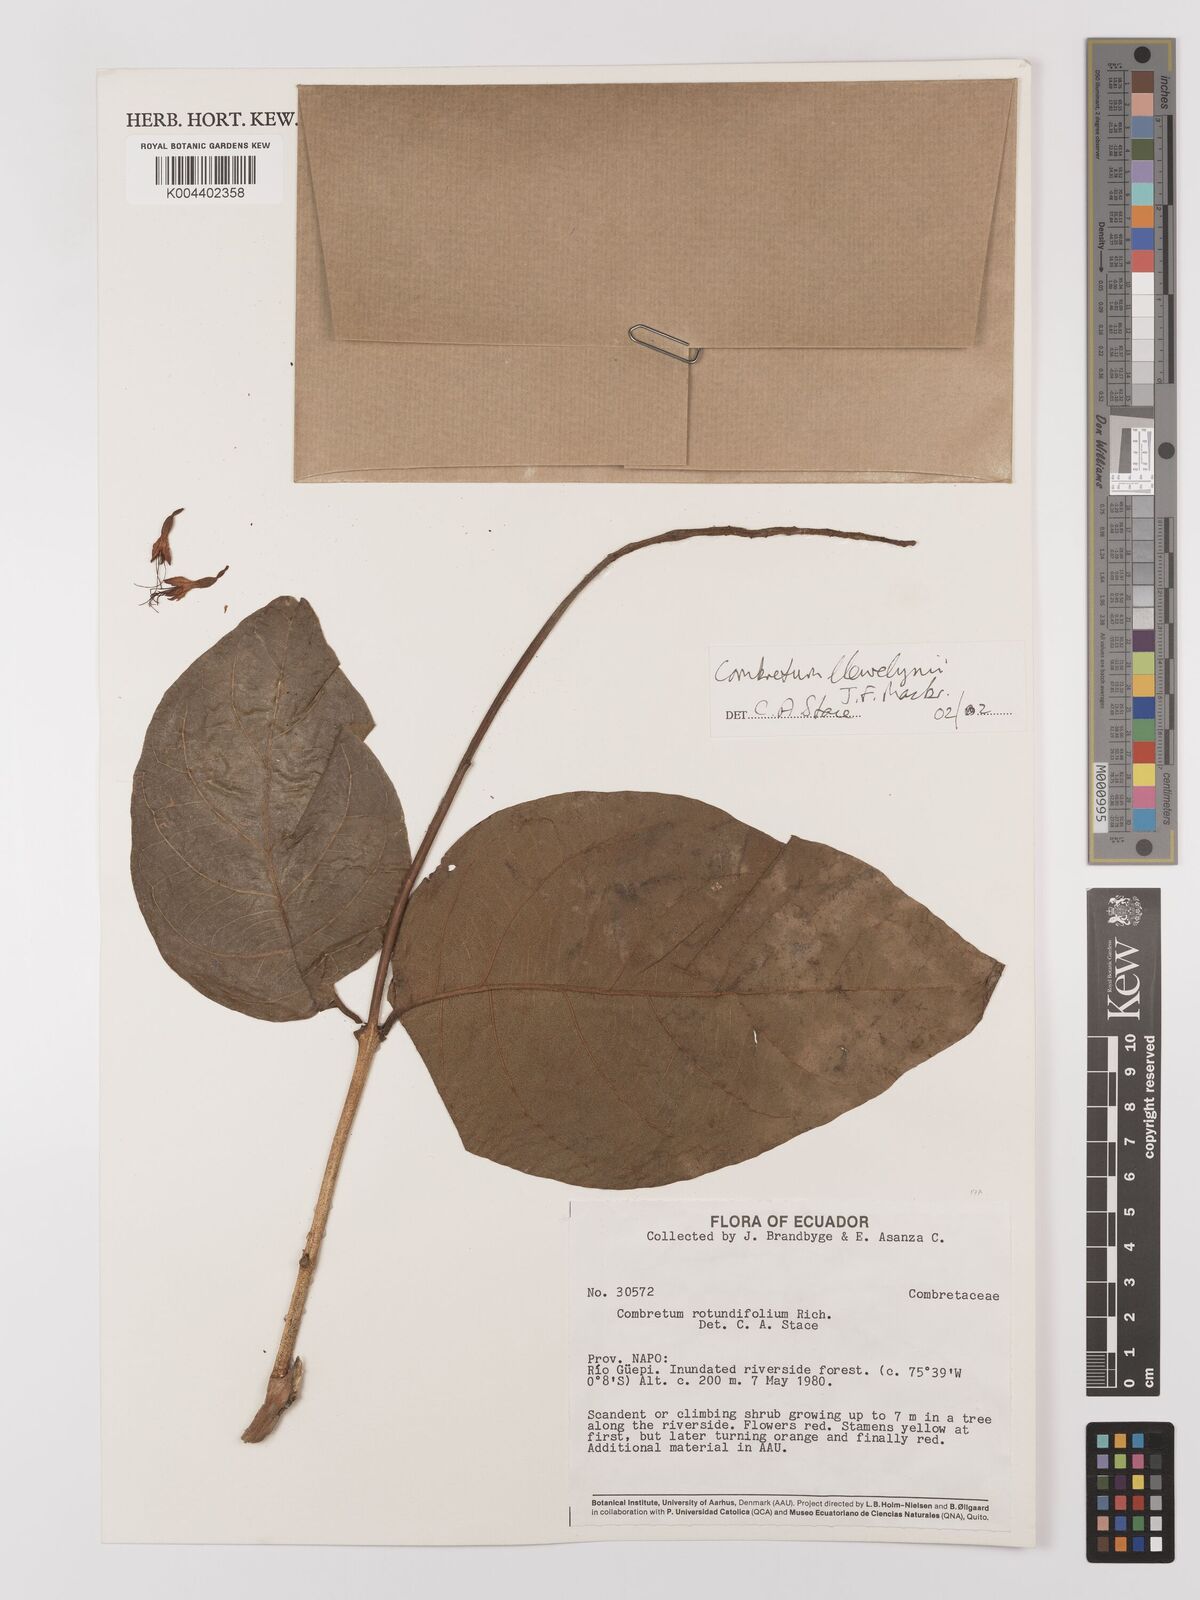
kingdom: Plantae
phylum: Tracheophyta
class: Magnoliopsida
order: Myrtales
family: Combretaceae
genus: Combretum
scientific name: Combretum llewelynii
